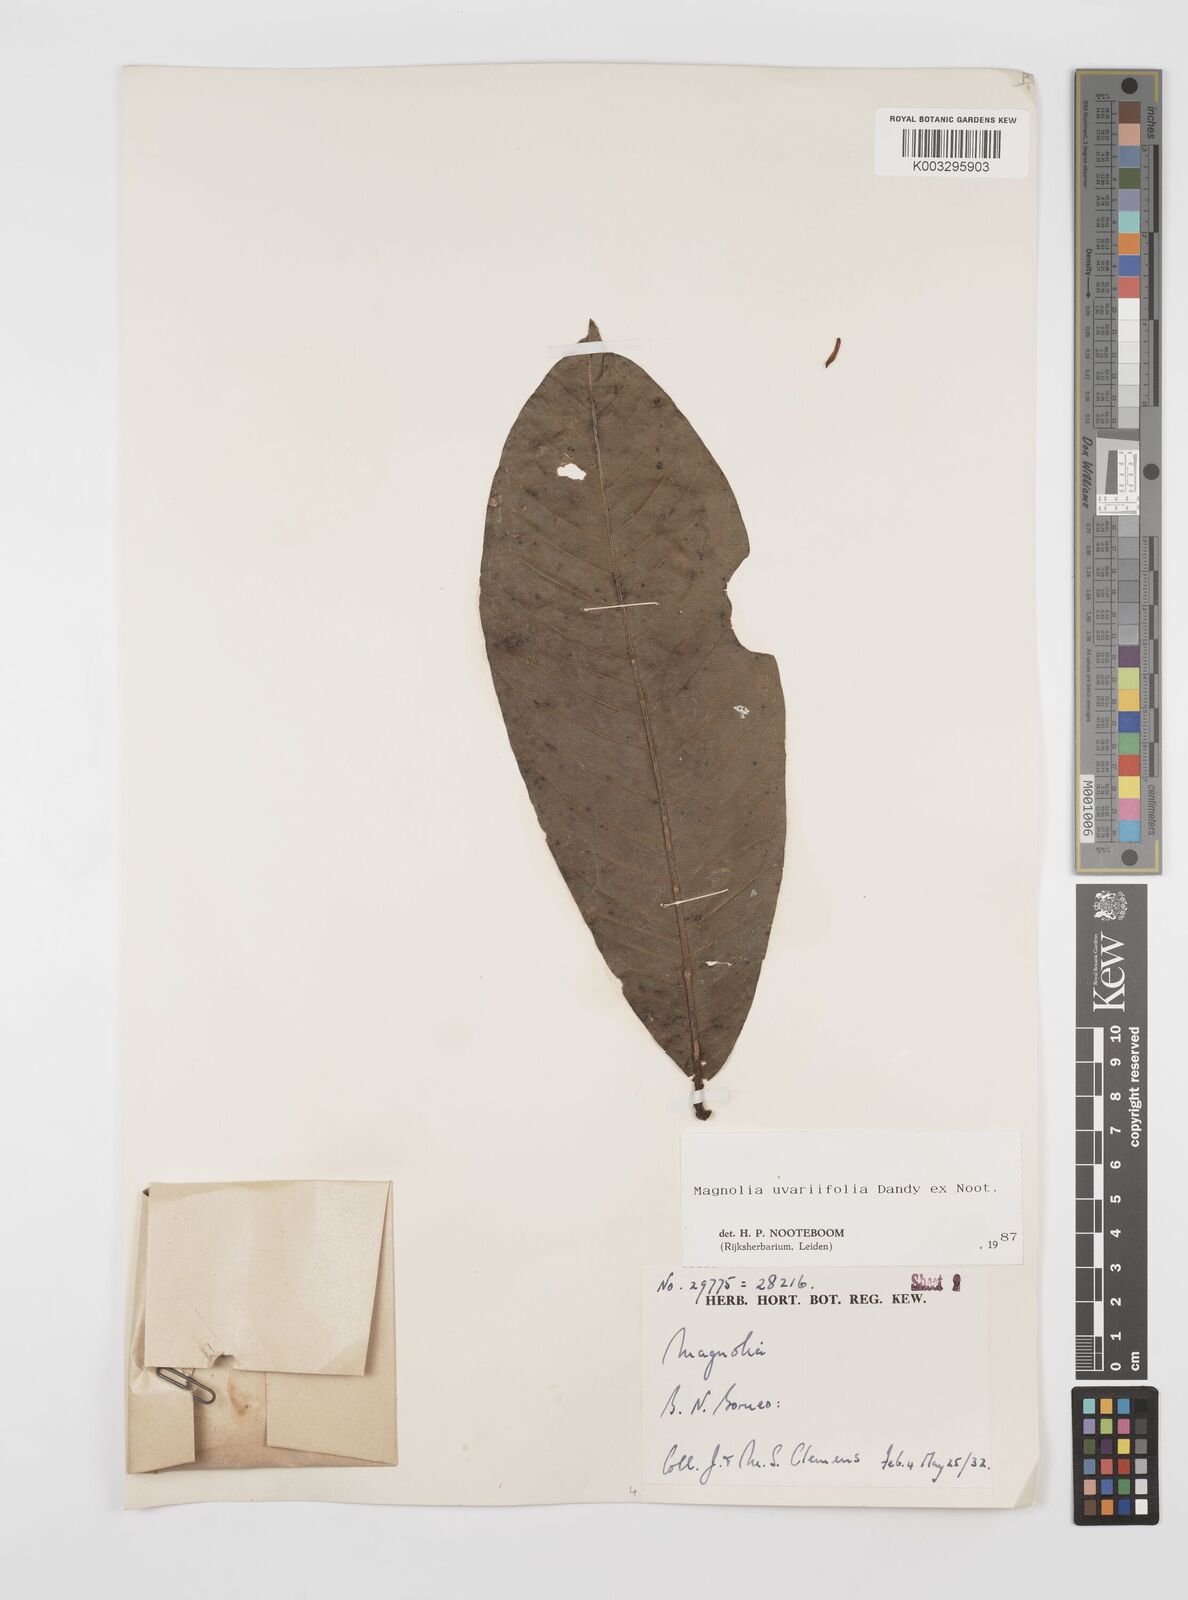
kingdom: Plantae
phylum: Tracheophyta
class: Magnoliopsida
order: Magnoliales
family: Magnoliaceae
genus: Magnolia
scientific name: Magnolia macklottii
